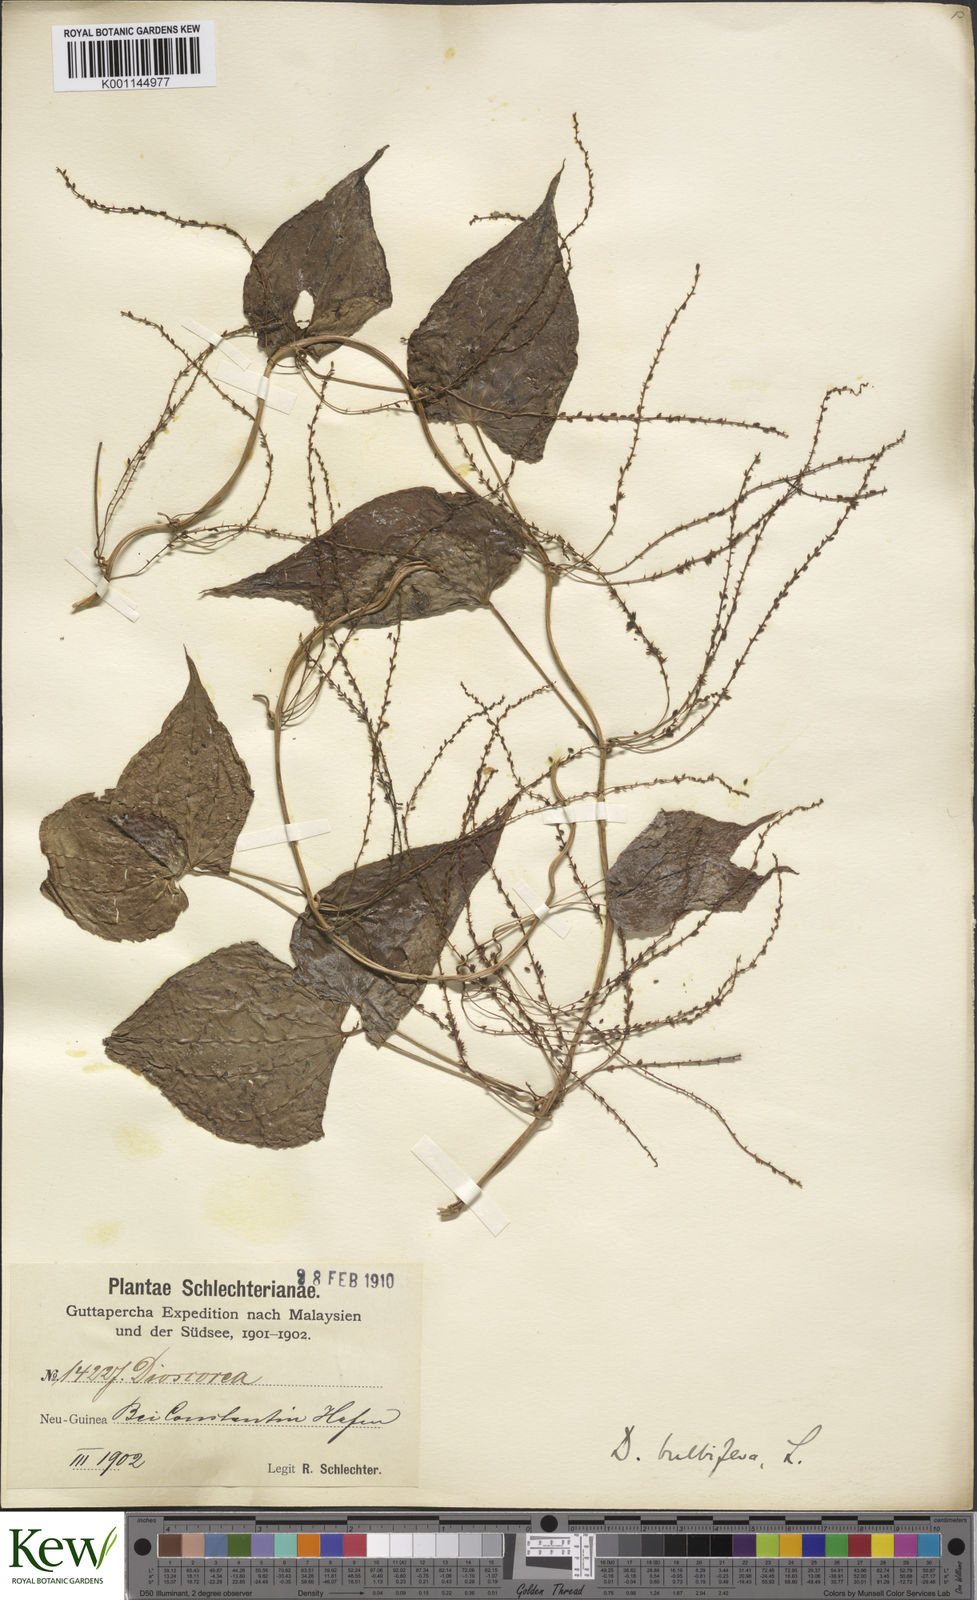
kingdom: Plantae
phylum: Tracheophyta
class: Liliopsida
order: Dioscoreales
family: Dioscoreaceae
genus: Dioscorea
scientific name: Dioscorea bulbifera
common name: Air yam
